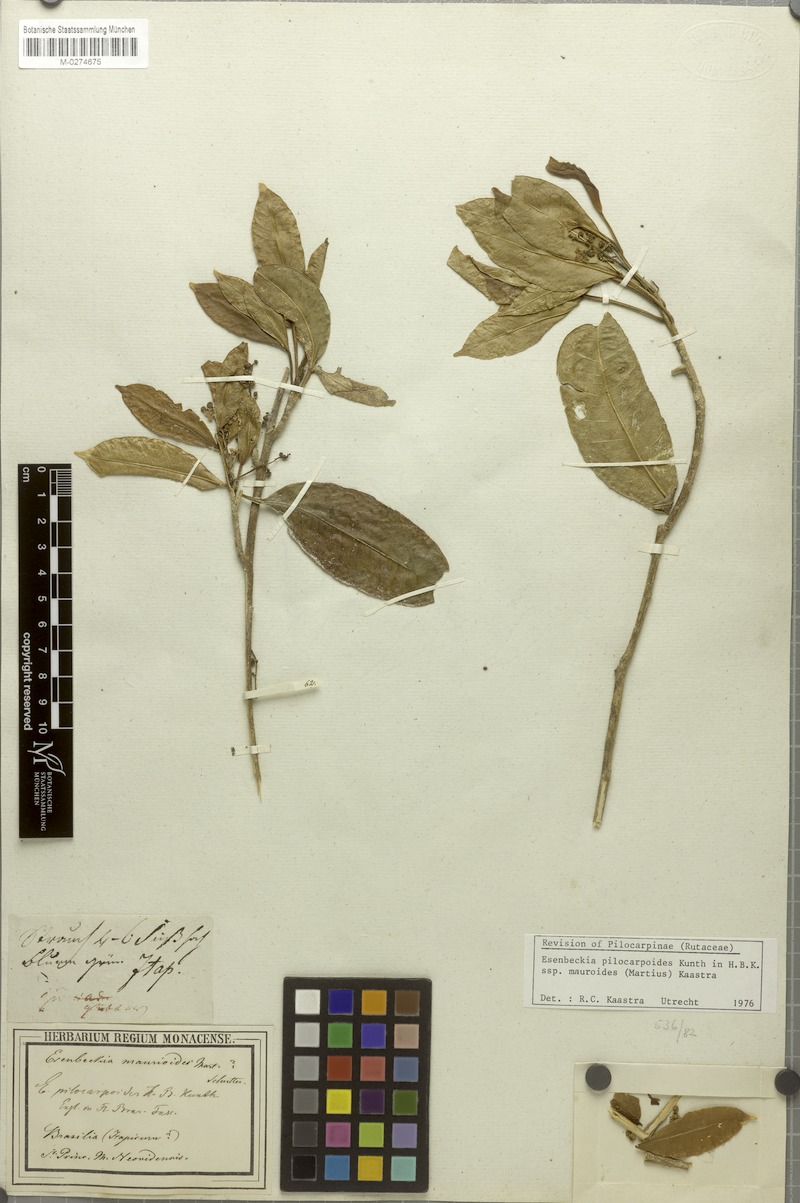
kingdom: Plantae
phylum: Tracheophyta
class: Magnoliopsida
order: Sapindales
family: Rutaceae
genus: Esenbeckia
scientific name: Esenbeckia pilocarpoides
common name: Pilosefruit esenbeckia
